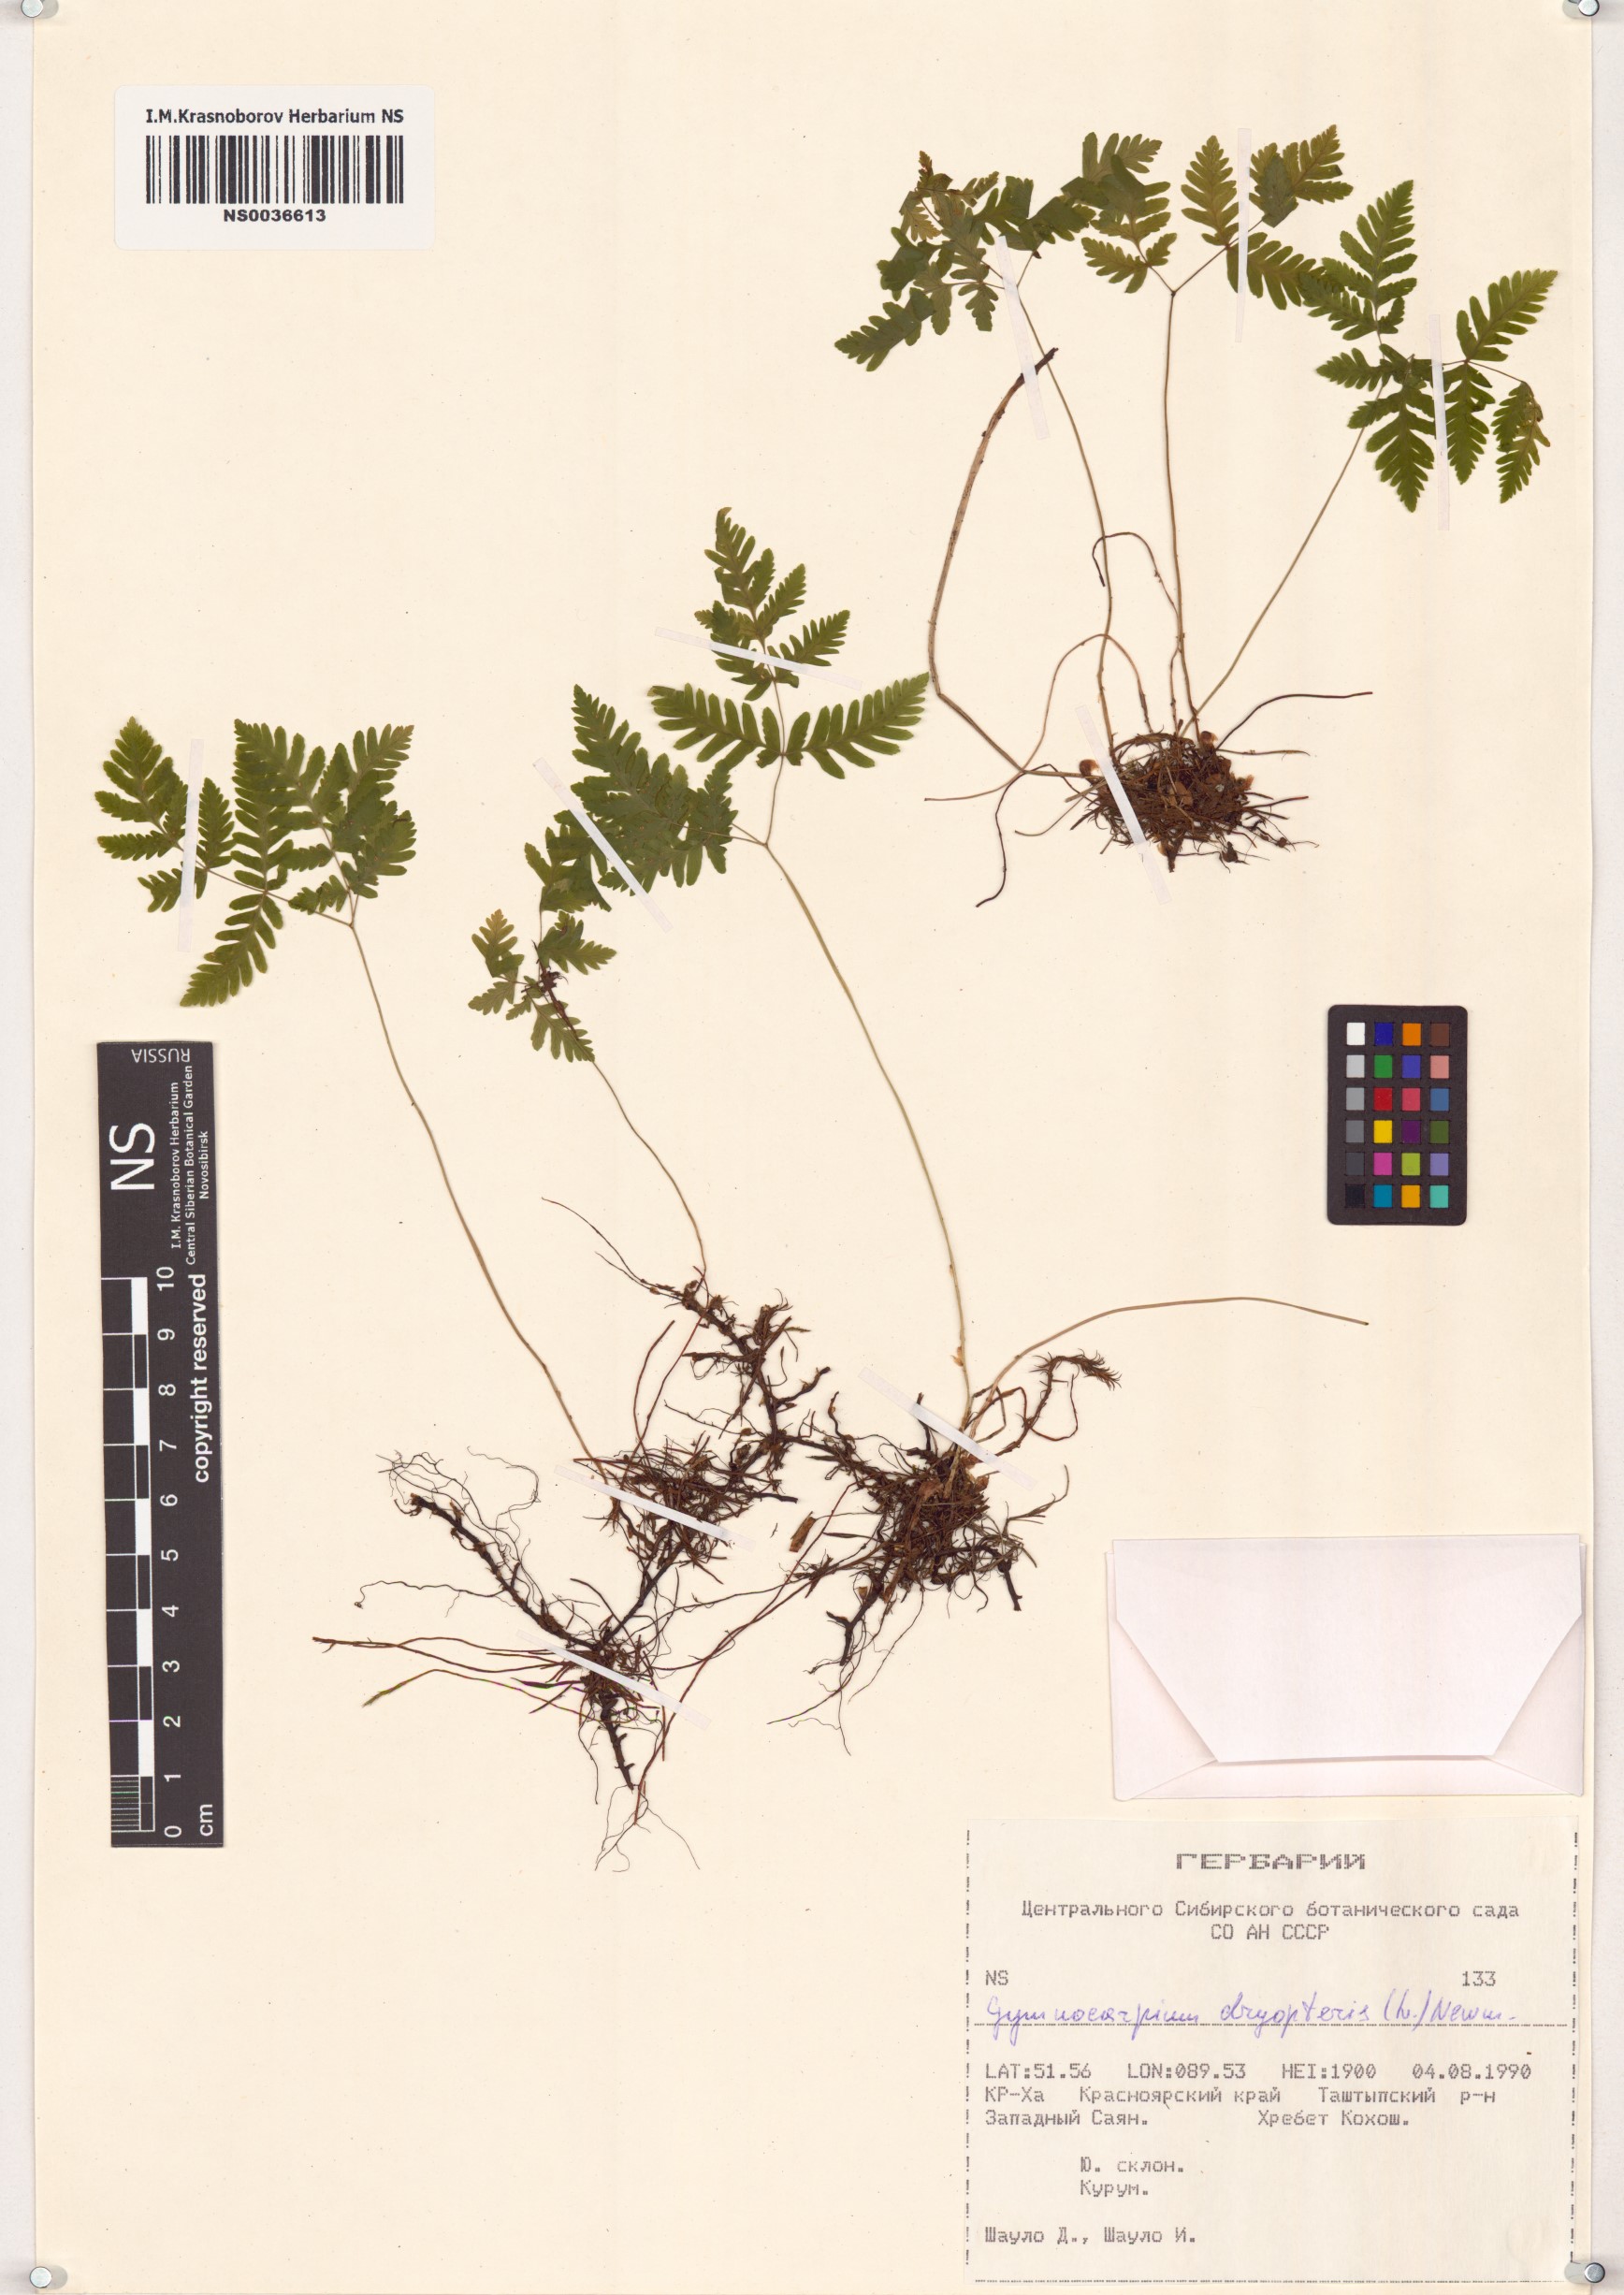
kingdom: Plantae
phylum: Tracheophyta
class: Polypodiopsida
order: Polypodiales
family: Cystopteridaceae
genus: Gymnocarpium
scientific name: Gymnocarpium dryopteris
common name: Oak fern
